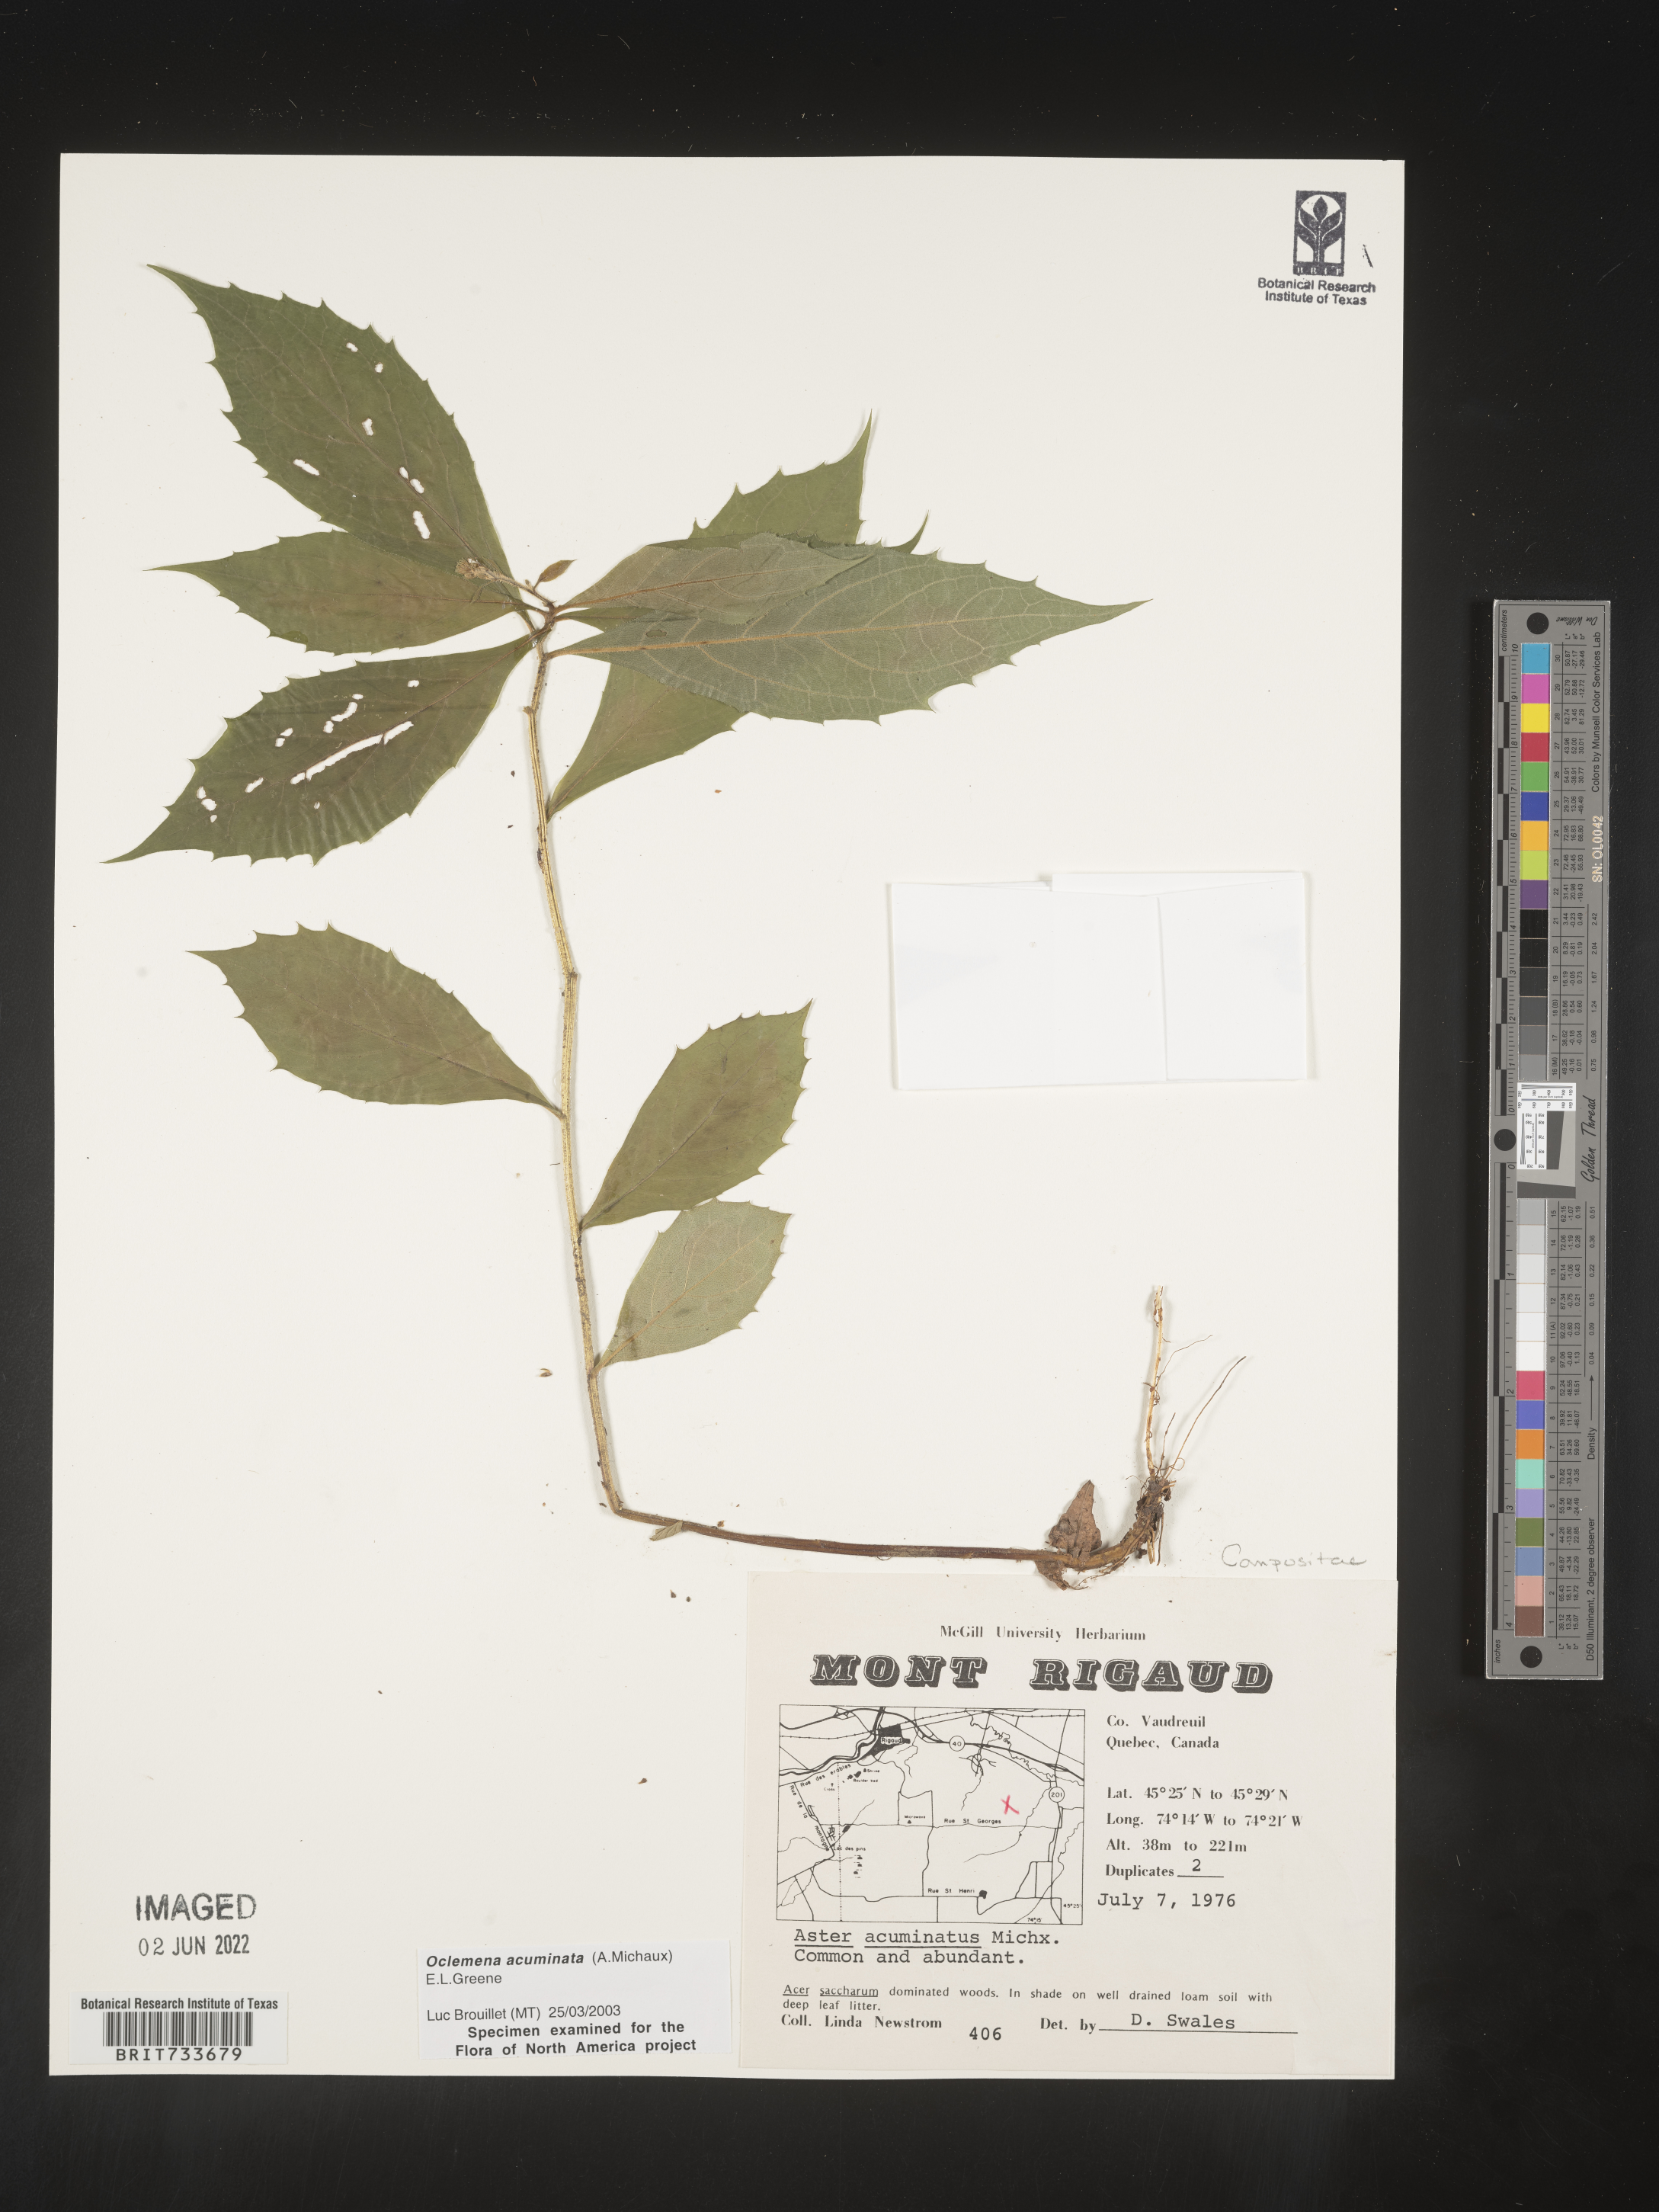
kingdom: Plantae
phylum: Tracheophyta
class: Magnoliopsida
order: Asterales
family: Asteraceae
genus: Oclemena
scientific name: Oclemena acuminata
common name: Mountain aster
